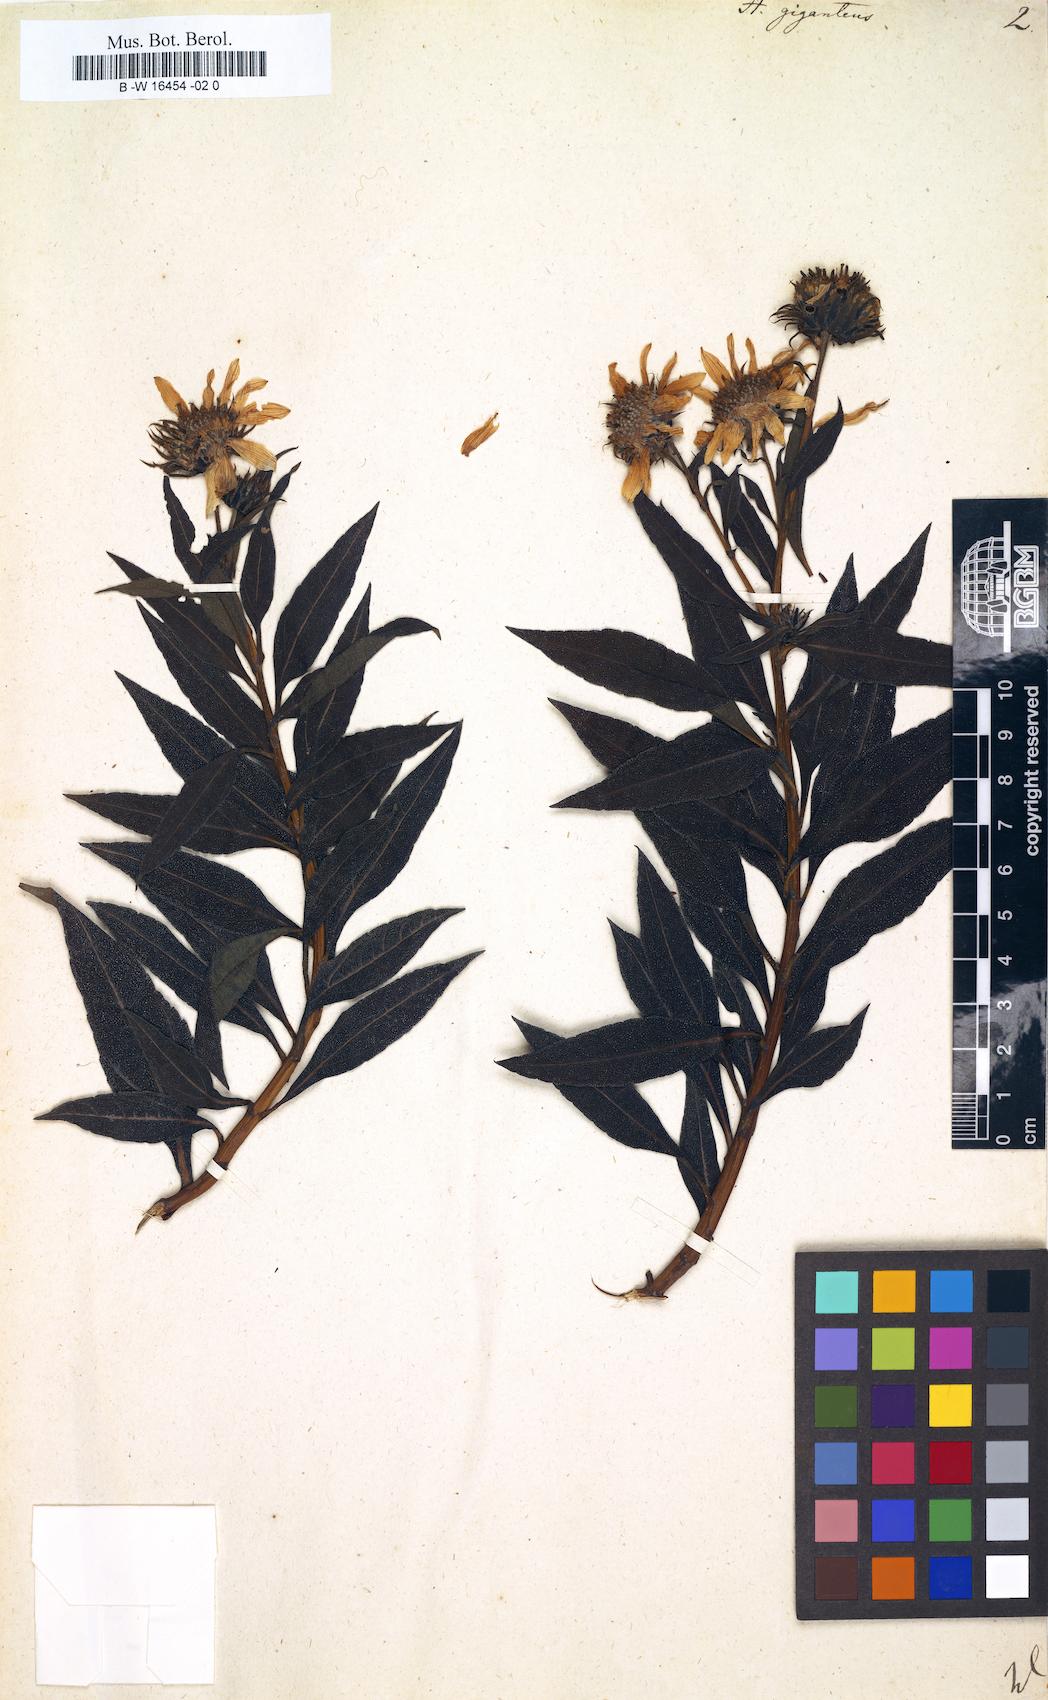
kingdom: Plantae
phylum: Tracheophyta
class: Magnoliopsida
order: Asterales
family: Asteraceae
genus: Helianthus
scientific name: Helianthus giganteus
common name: Giant sunflower
